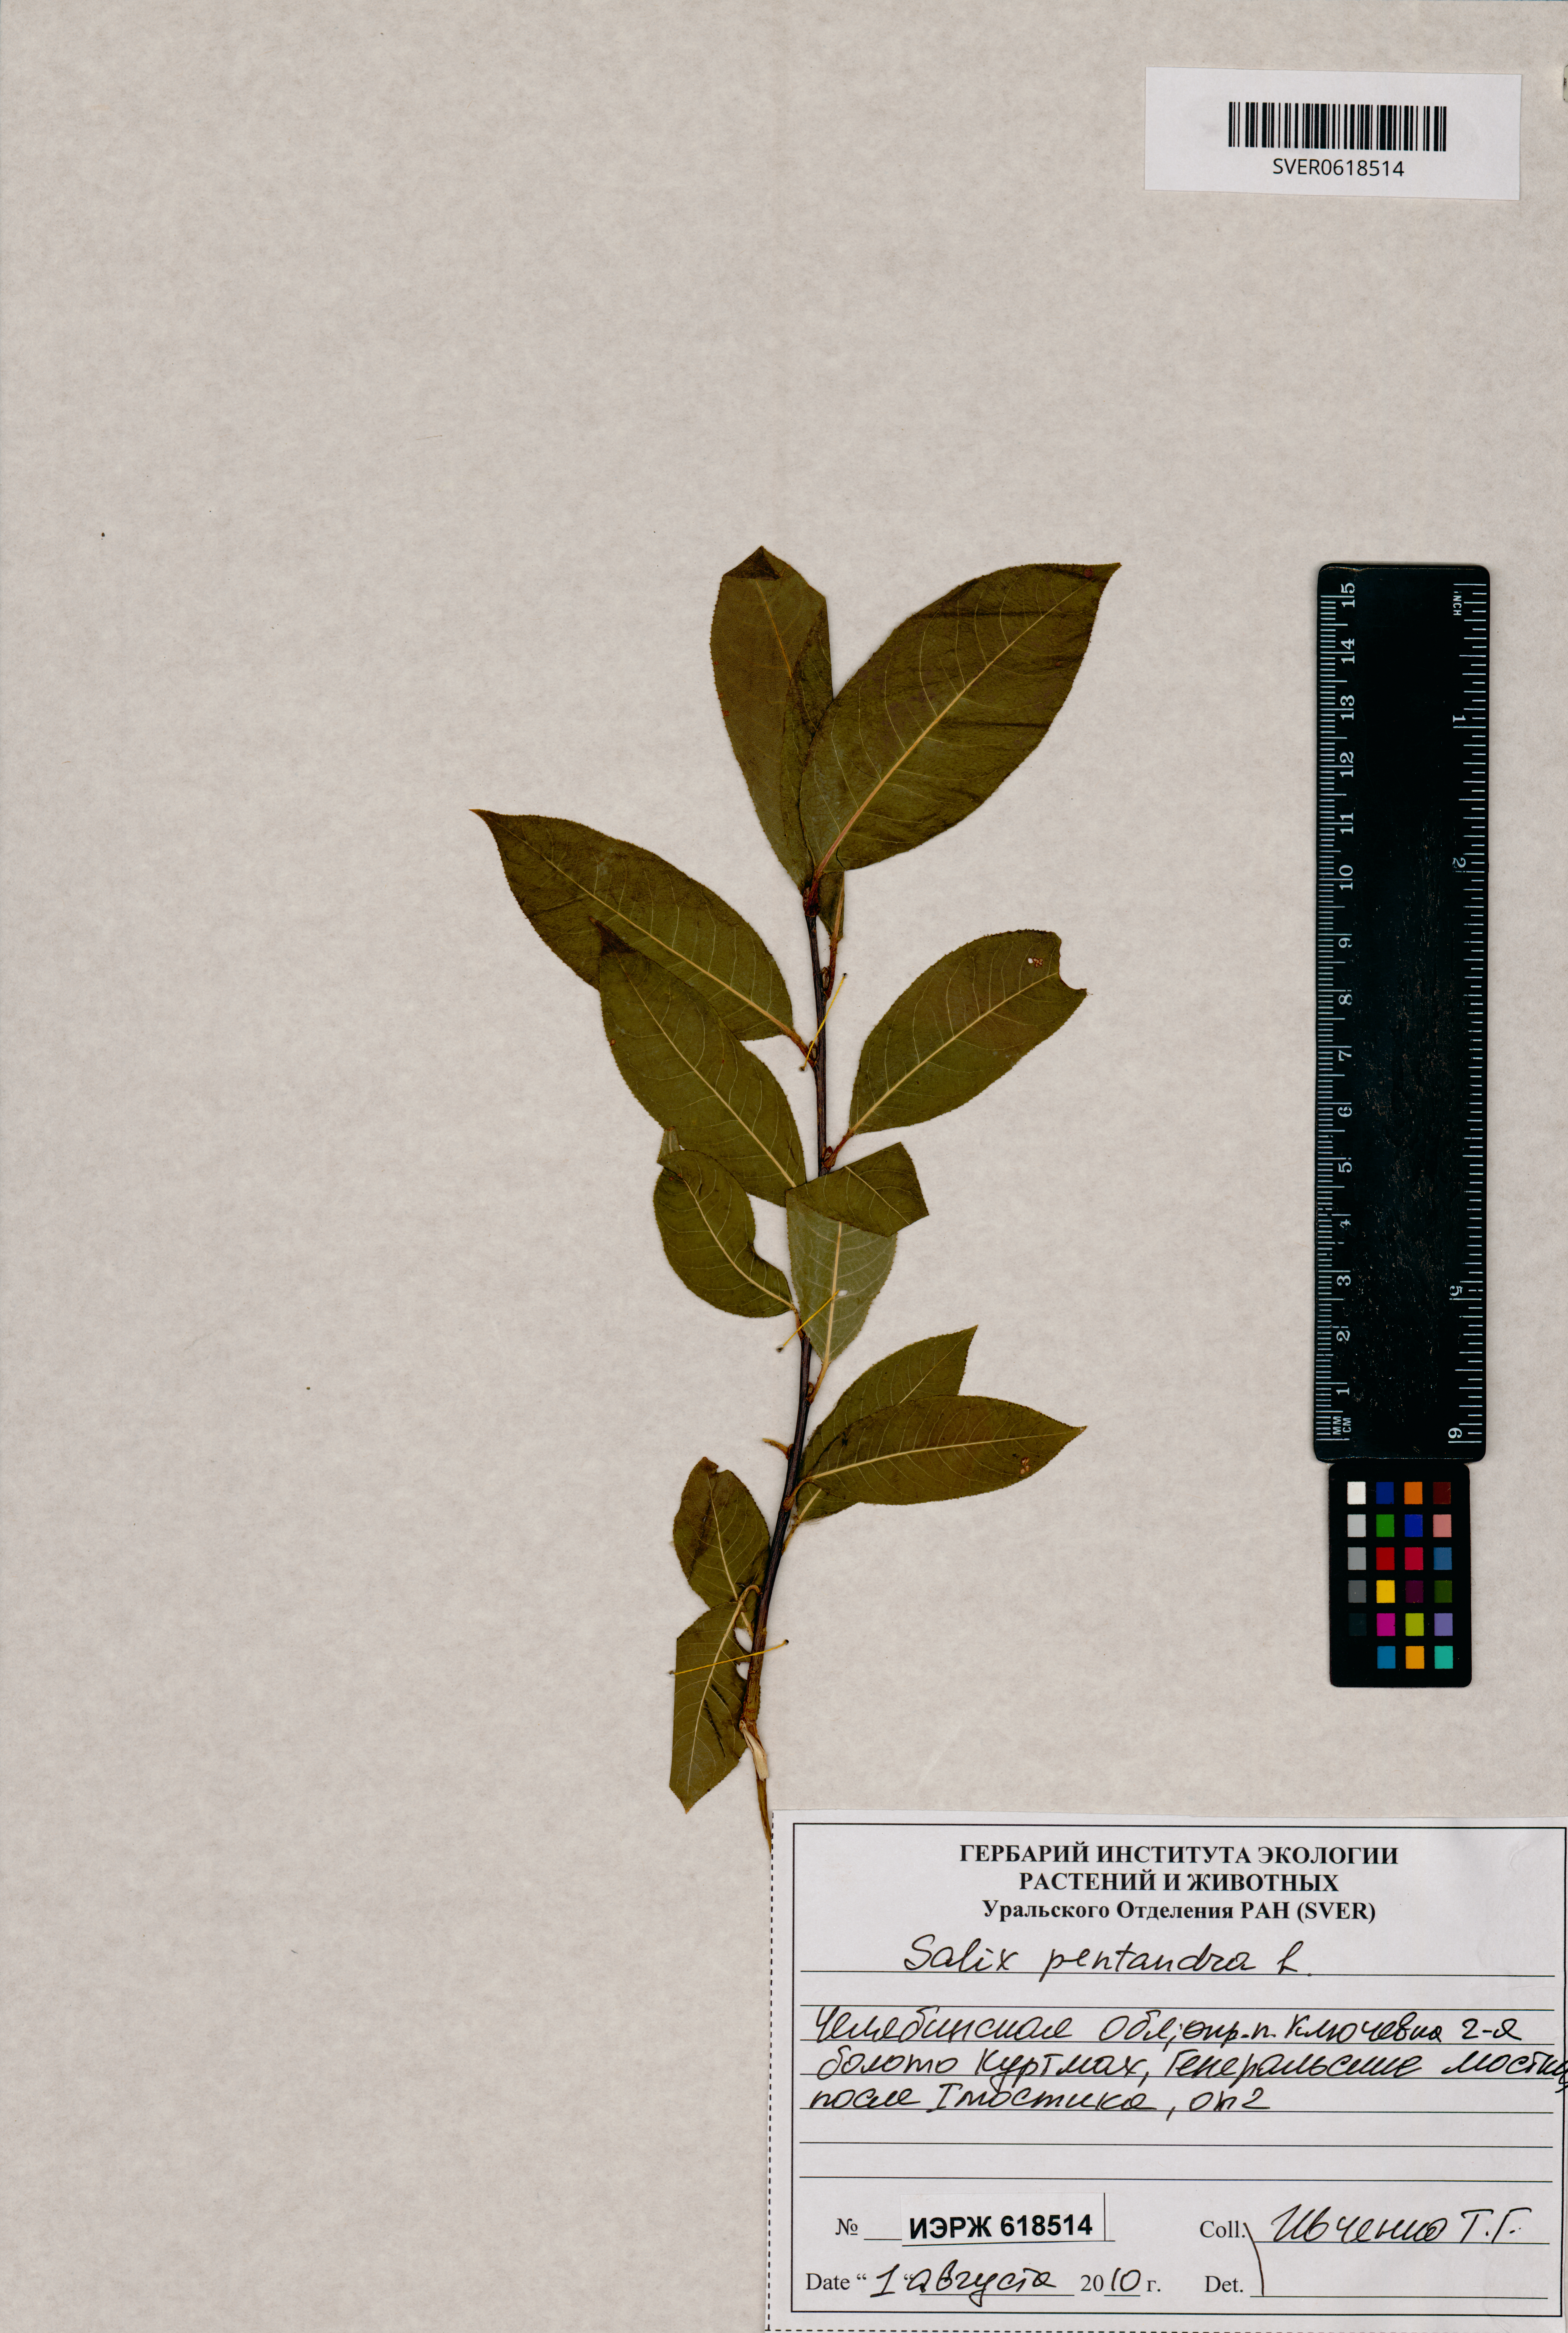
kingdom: Plantae
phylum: Tracheophyta
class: Magnoliopsida
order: Malpighiales
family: Salicaceae
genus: Salix
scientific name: Salix pentandra
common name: Bay willow
